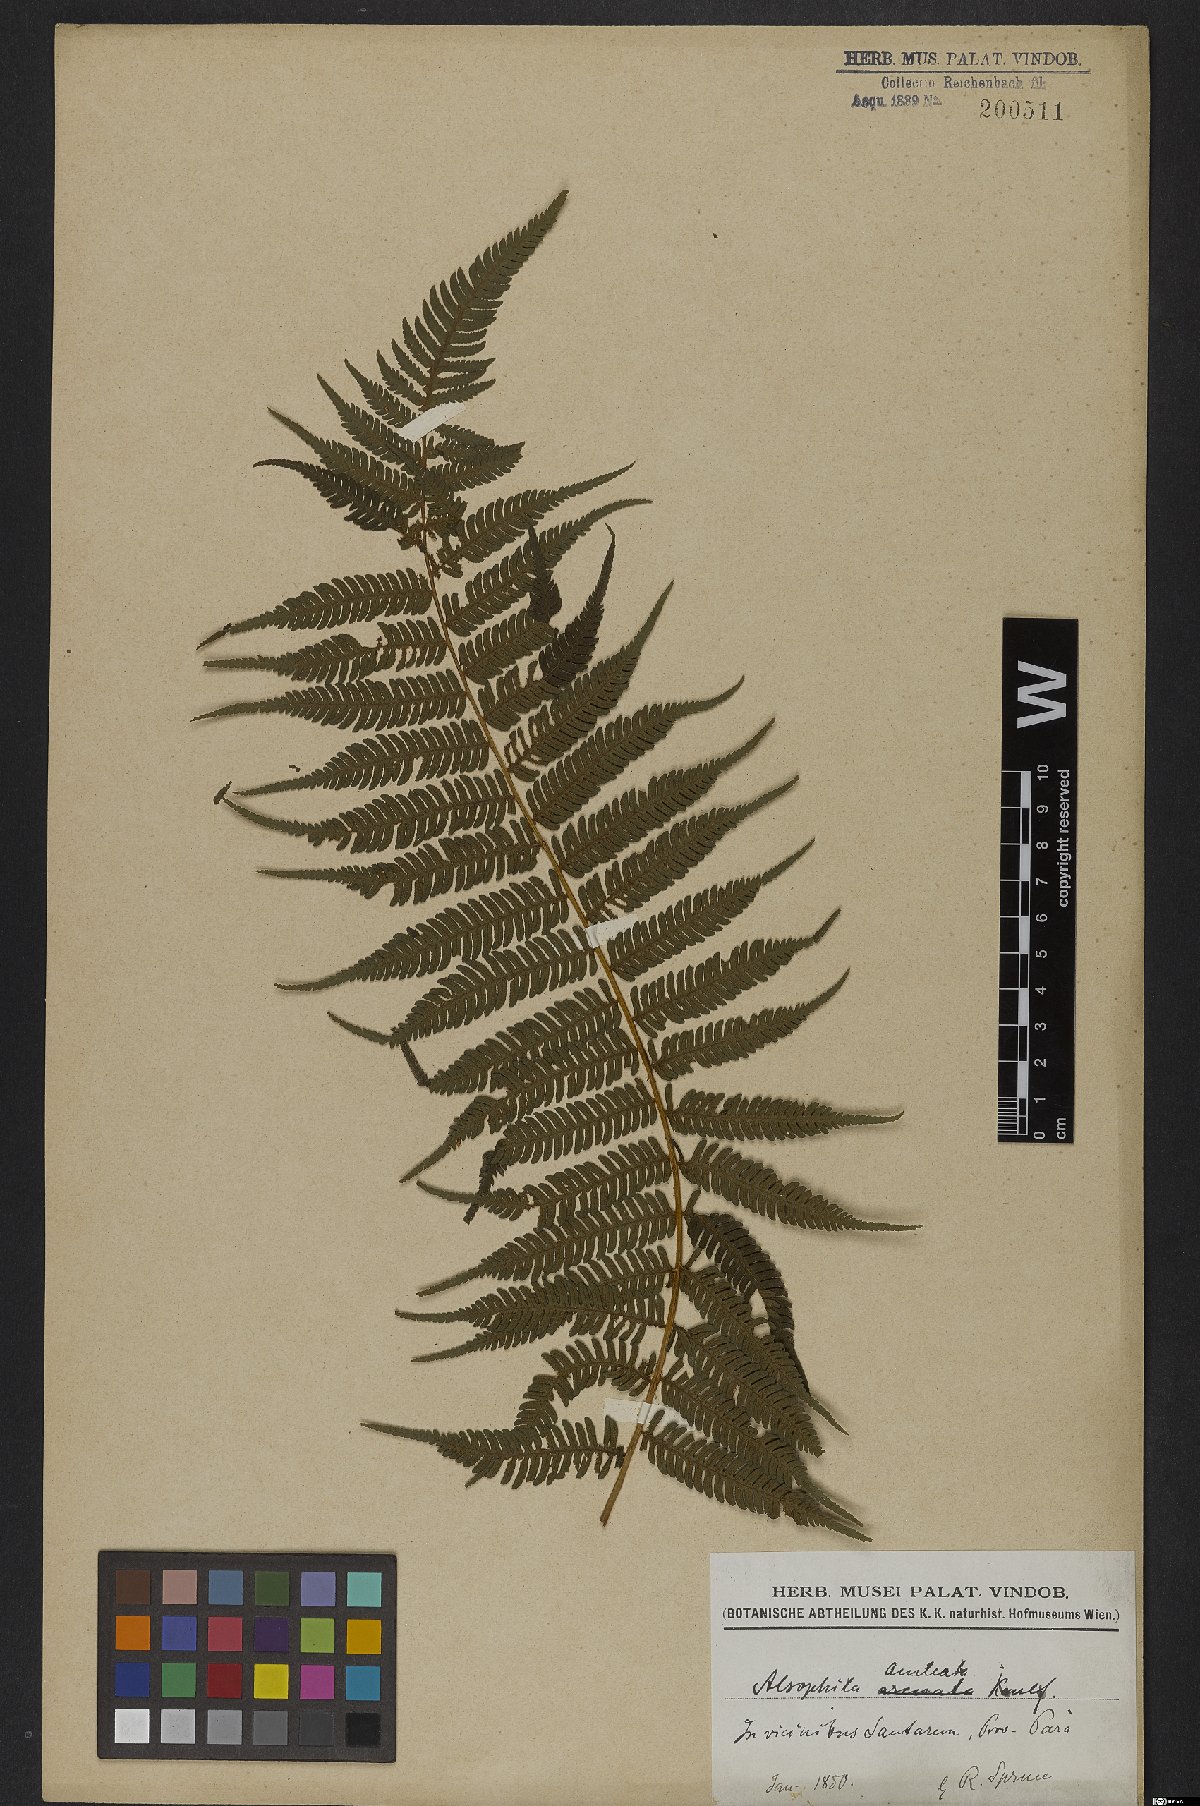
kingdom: Plantae
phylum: Tracheophyta
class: Polypodiopsida
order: Cyatheales
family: Cyatheaceae
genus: Cyathea
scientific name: Cyathea microdonta
